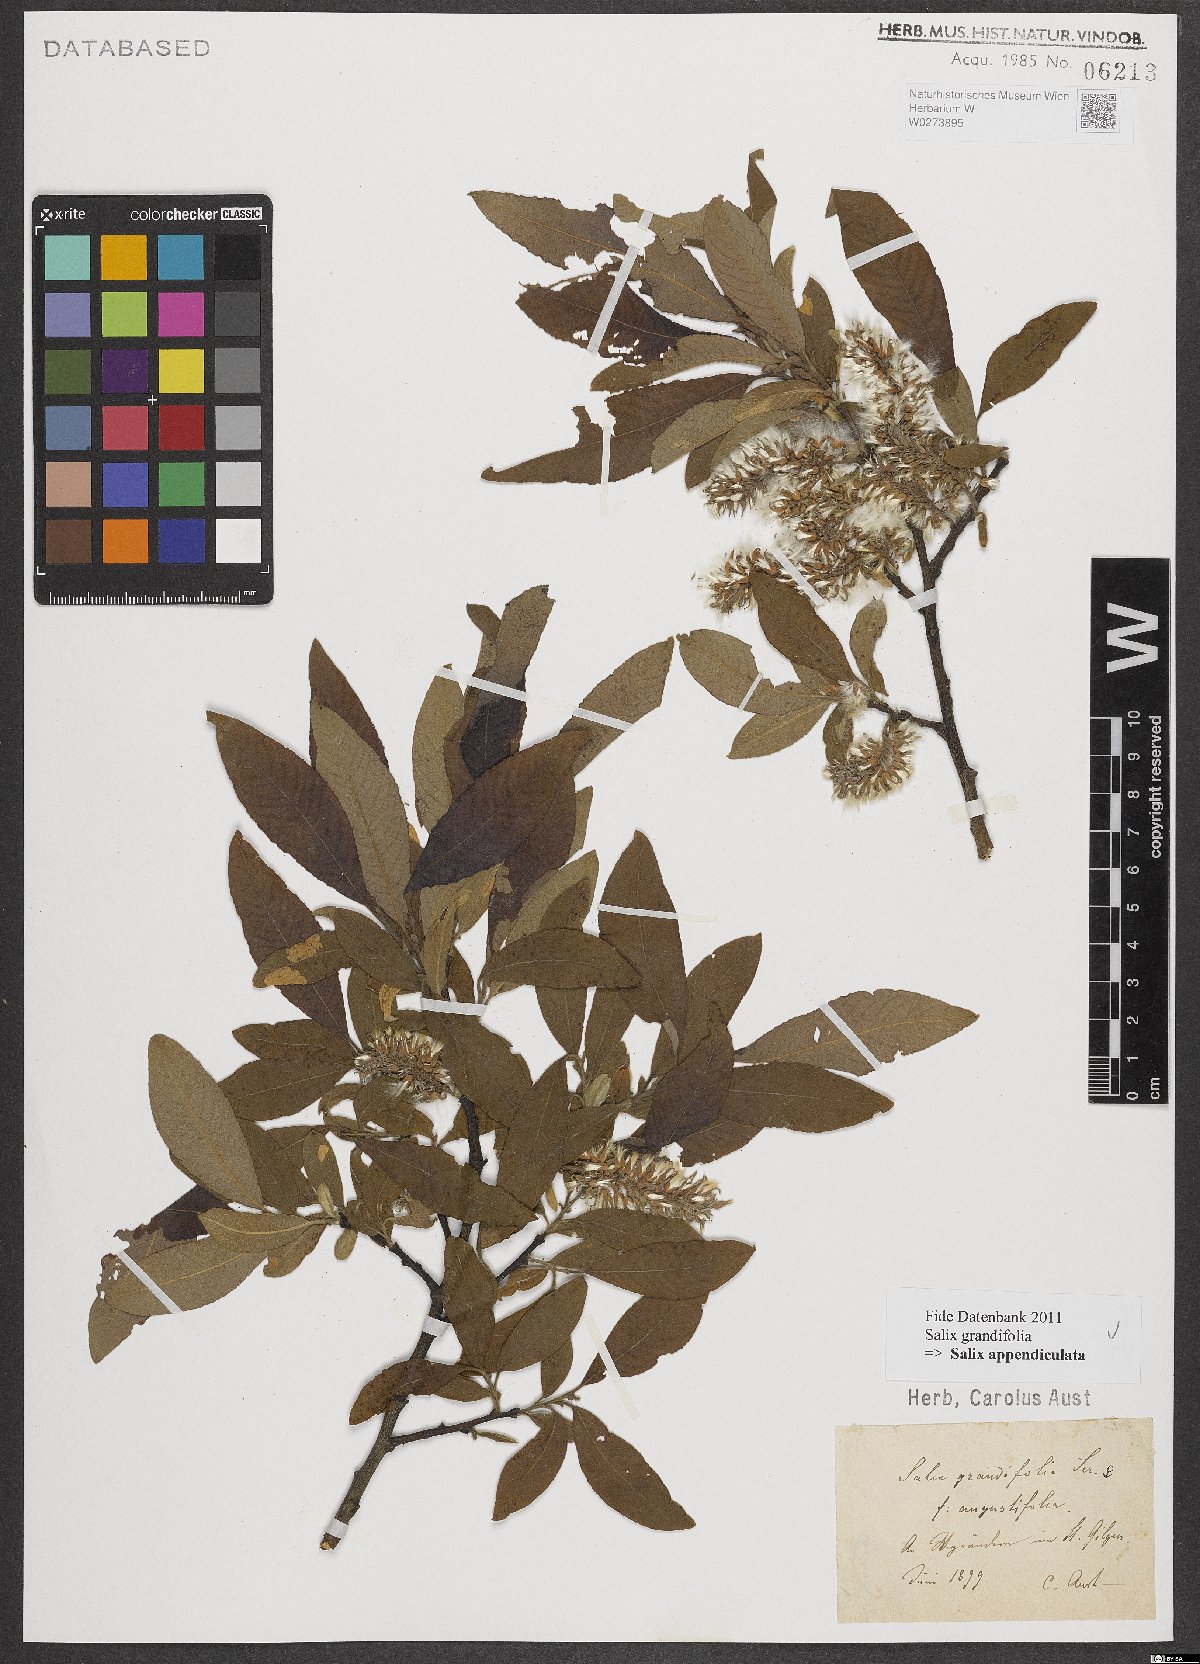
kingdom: Plantae
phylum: Tracheophyta
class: Magnoliopsida
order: Malpighiales
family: Salicaceae
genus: Salix
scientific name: Salix appendiculata
